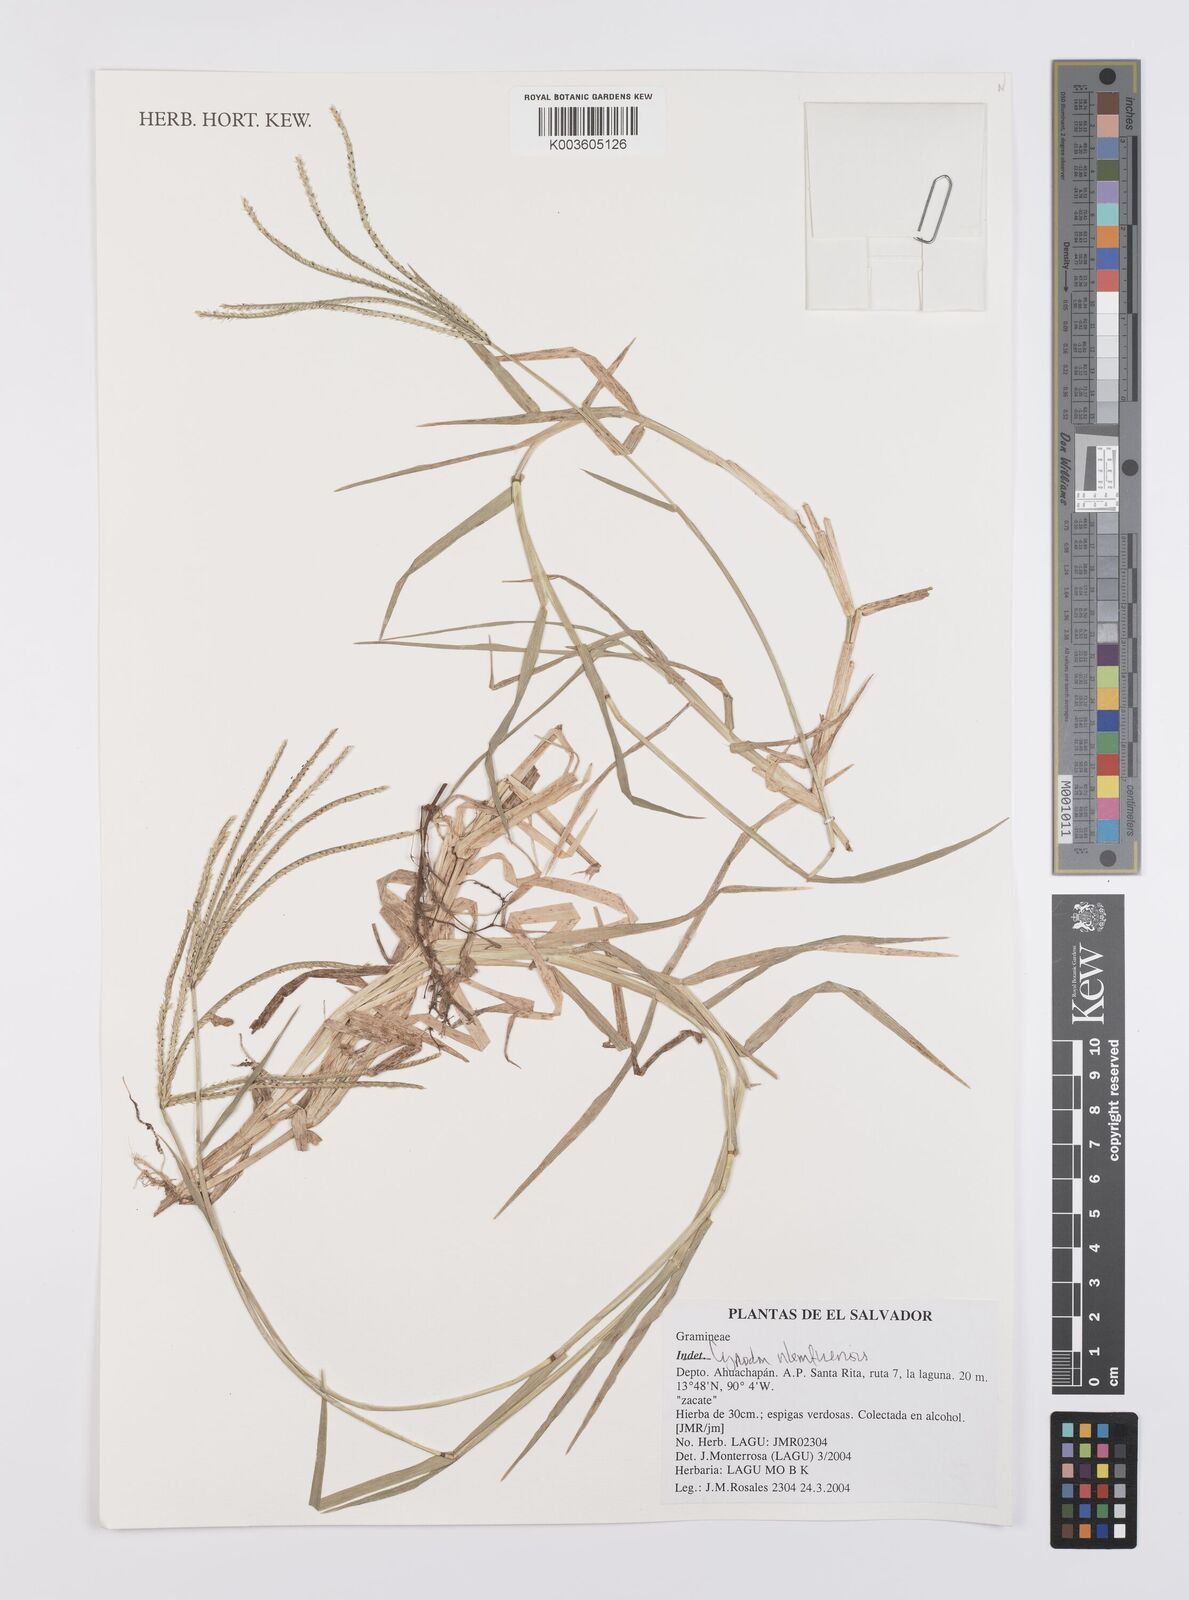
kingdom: Plantae
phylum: Tracheophyta
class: Liliopsida
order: Poales
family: Poaceae
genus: Cynodon
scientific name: Cynodon nlemfuensis
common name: African bermudagrass
